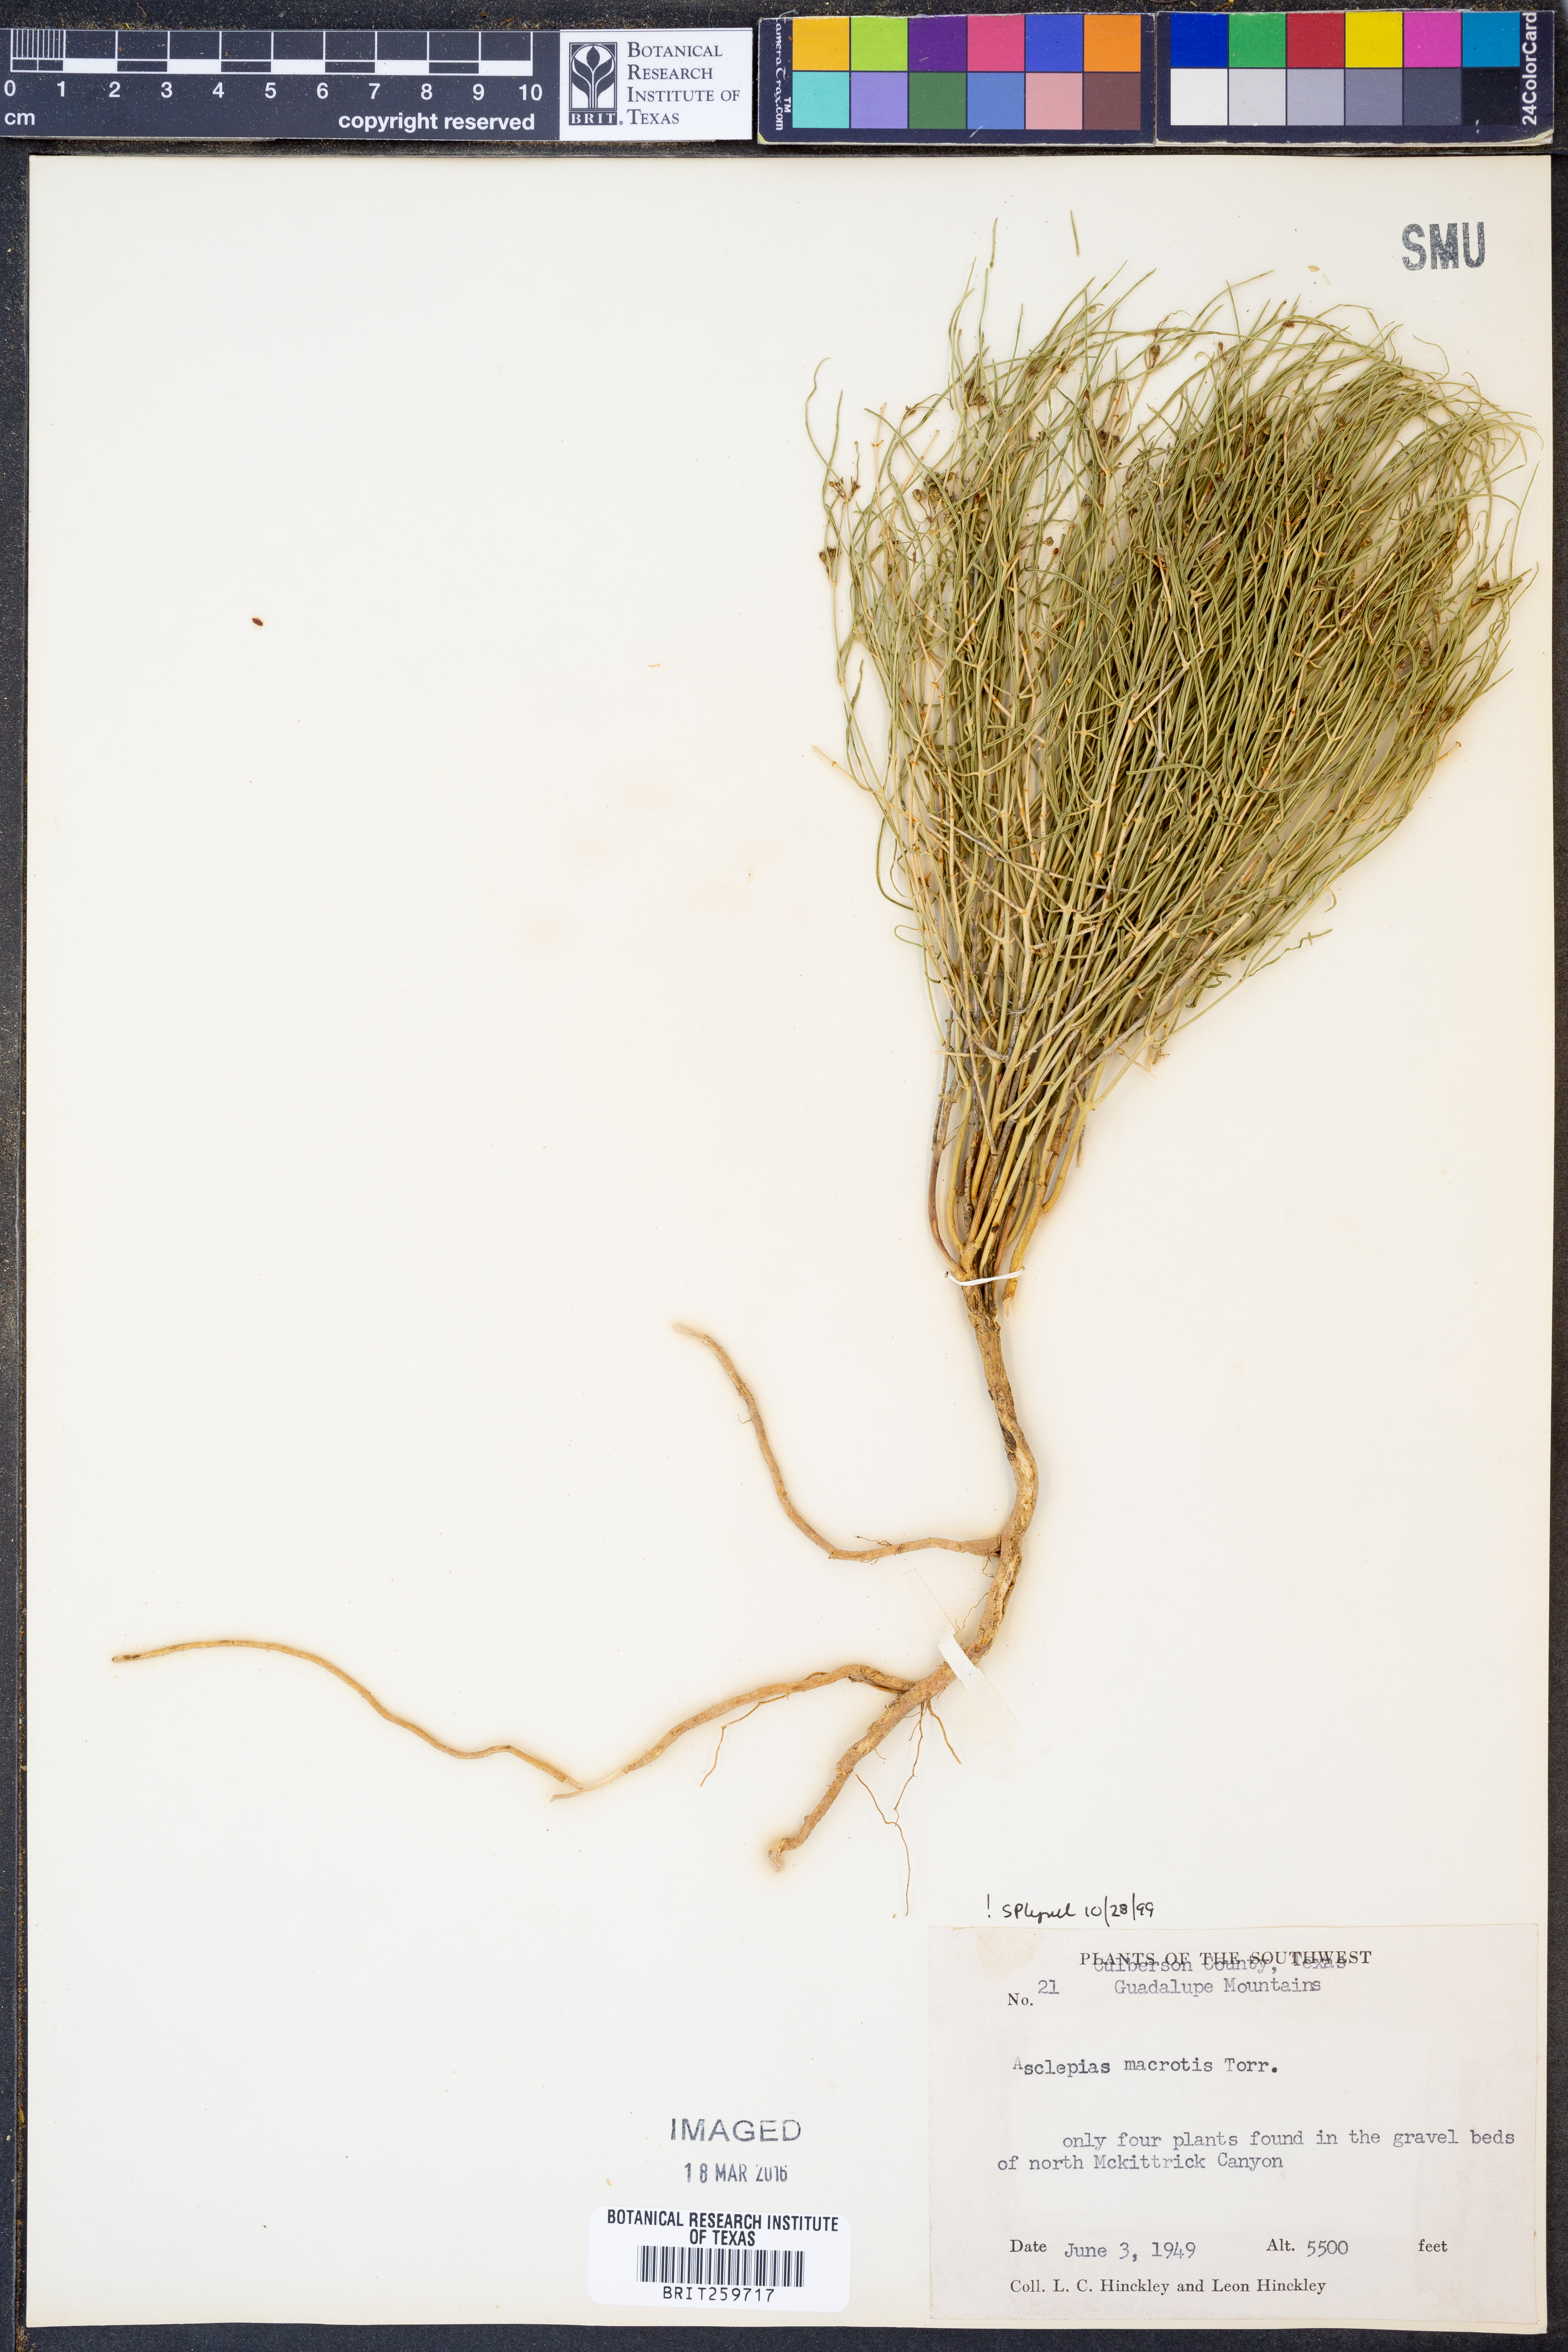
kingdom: Plantae
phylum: Tracheophyta
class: Magnoliopsida
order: Gentianales
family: Apocynaceae
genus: Asclepias
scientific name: Asclepias macrotis
